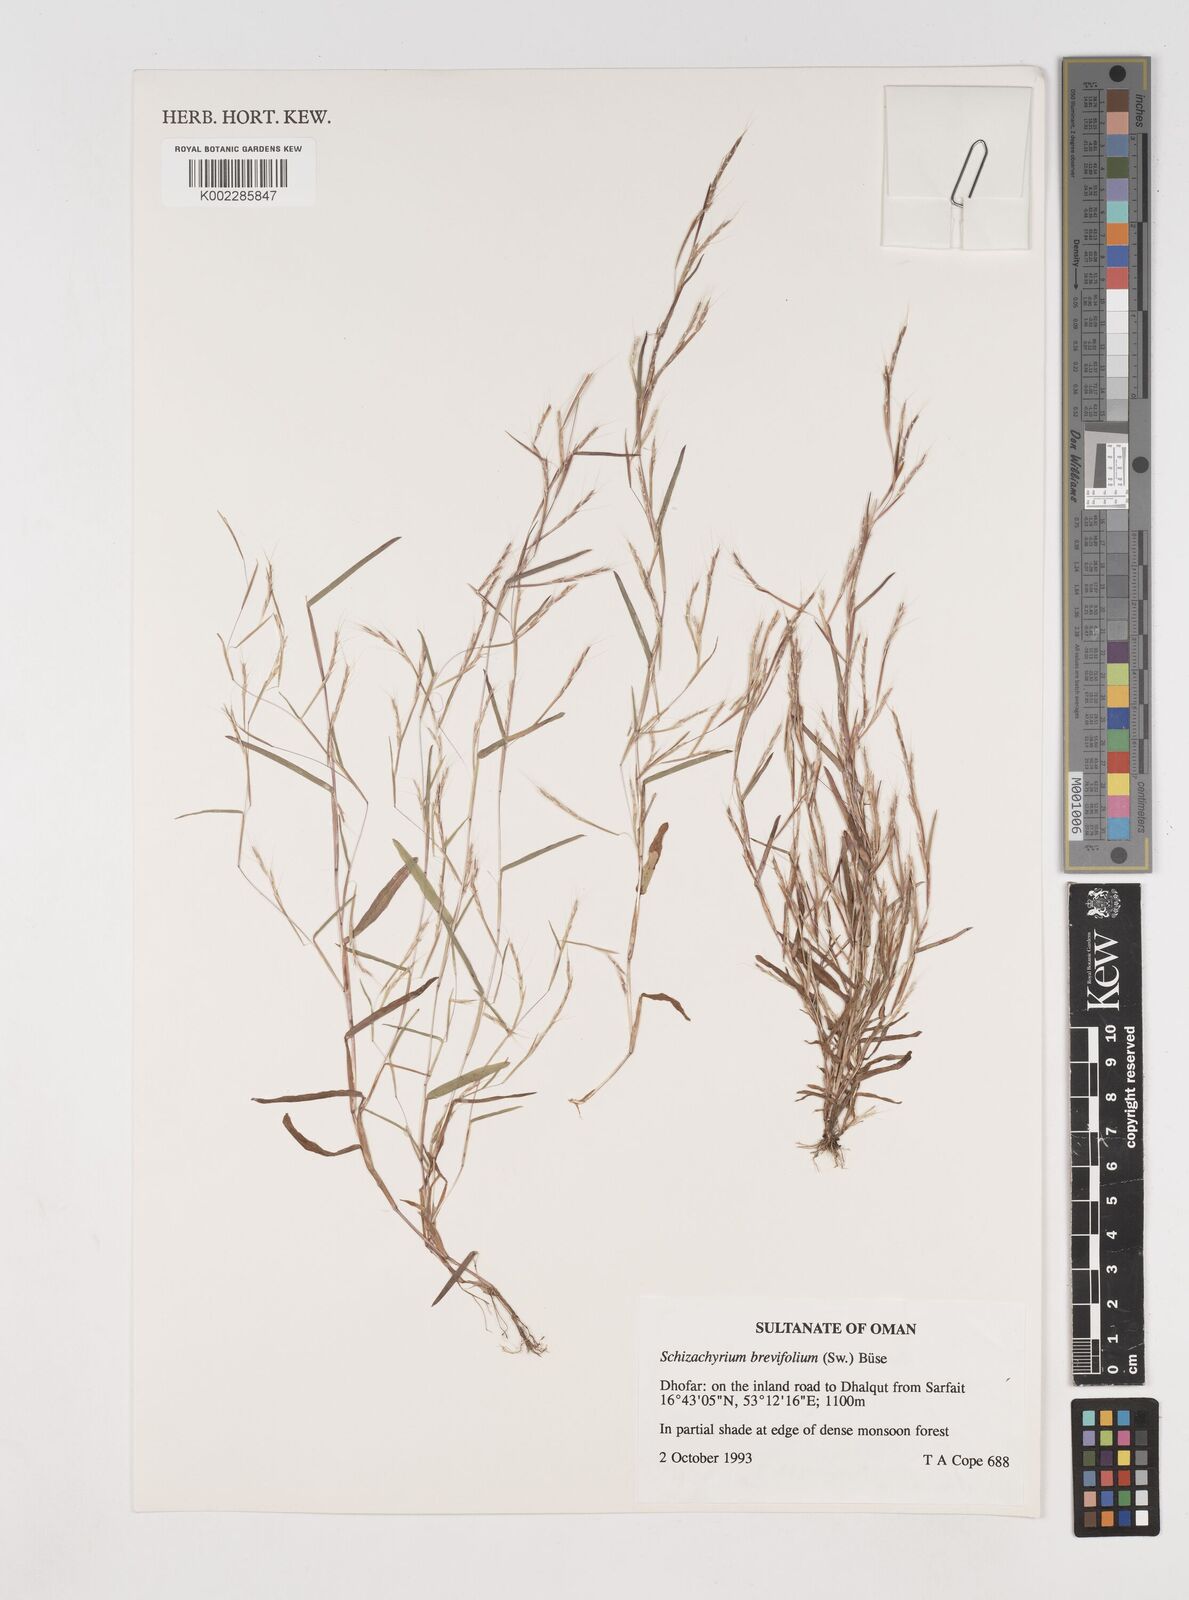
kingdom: Plantae
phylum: Tracheophyta
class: Liliopsida
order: Poales
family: Poaceae
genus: Schizachyrium
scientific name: Schizachyrium brevifolium
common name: Serillo dulce
